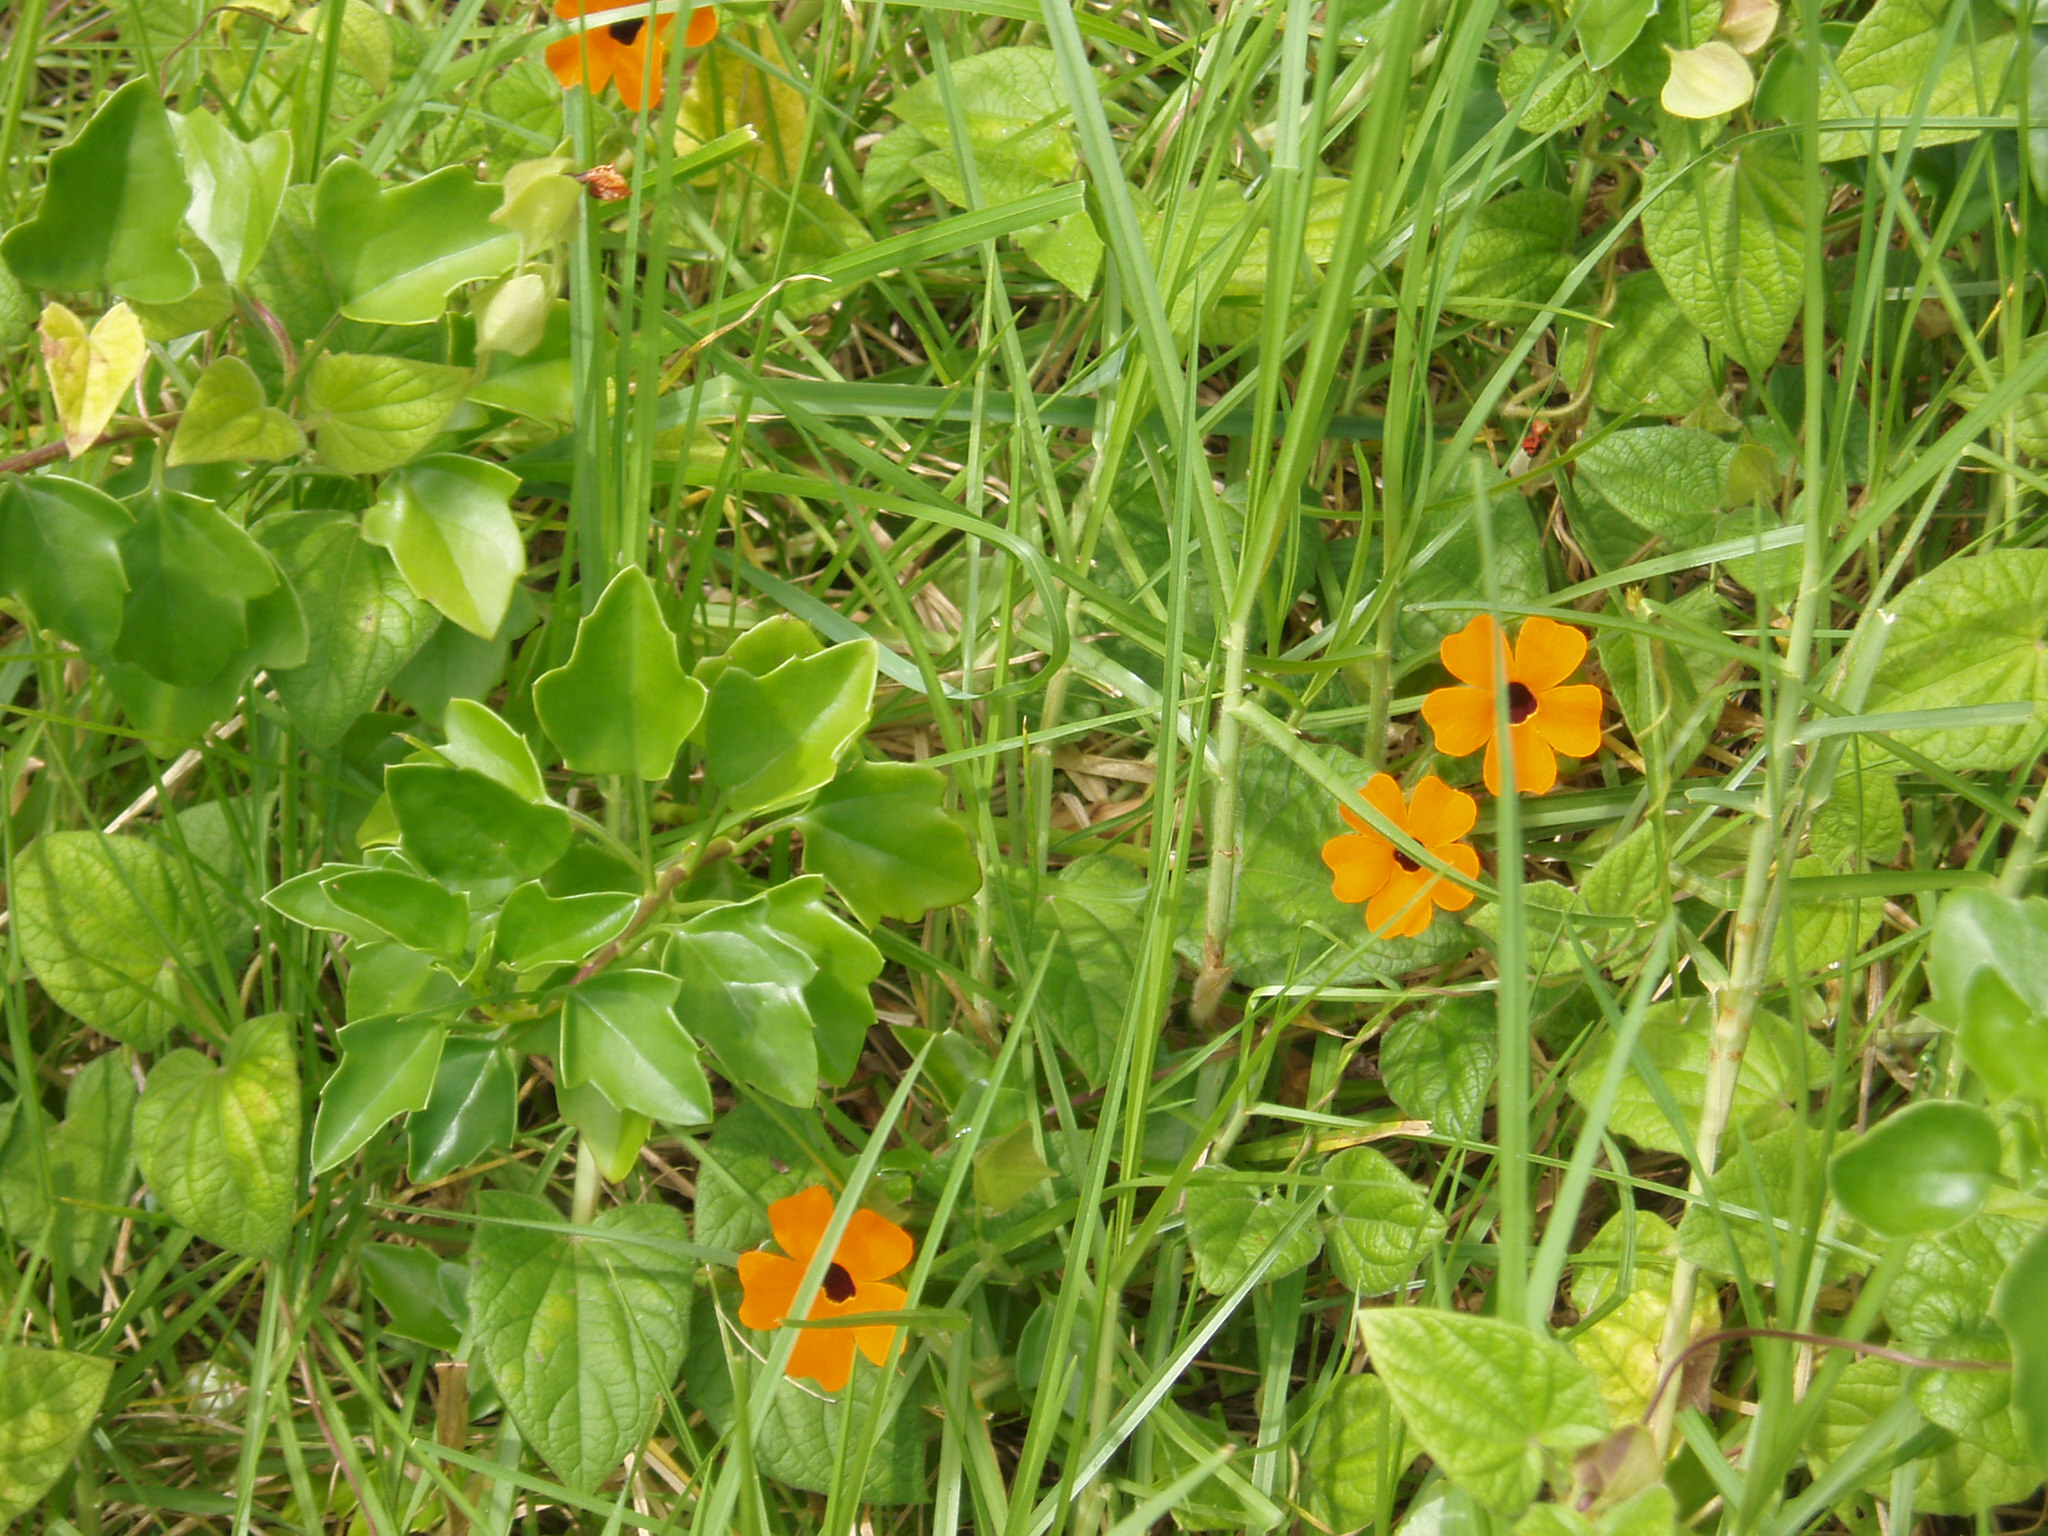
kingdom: Plantae
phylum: Tracheophyta
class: Magnoliopsida
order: Lamiales
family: Acanthaceae
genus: Thunbergia
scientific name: Thunbergia alata
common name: Blackeyed susan vine
